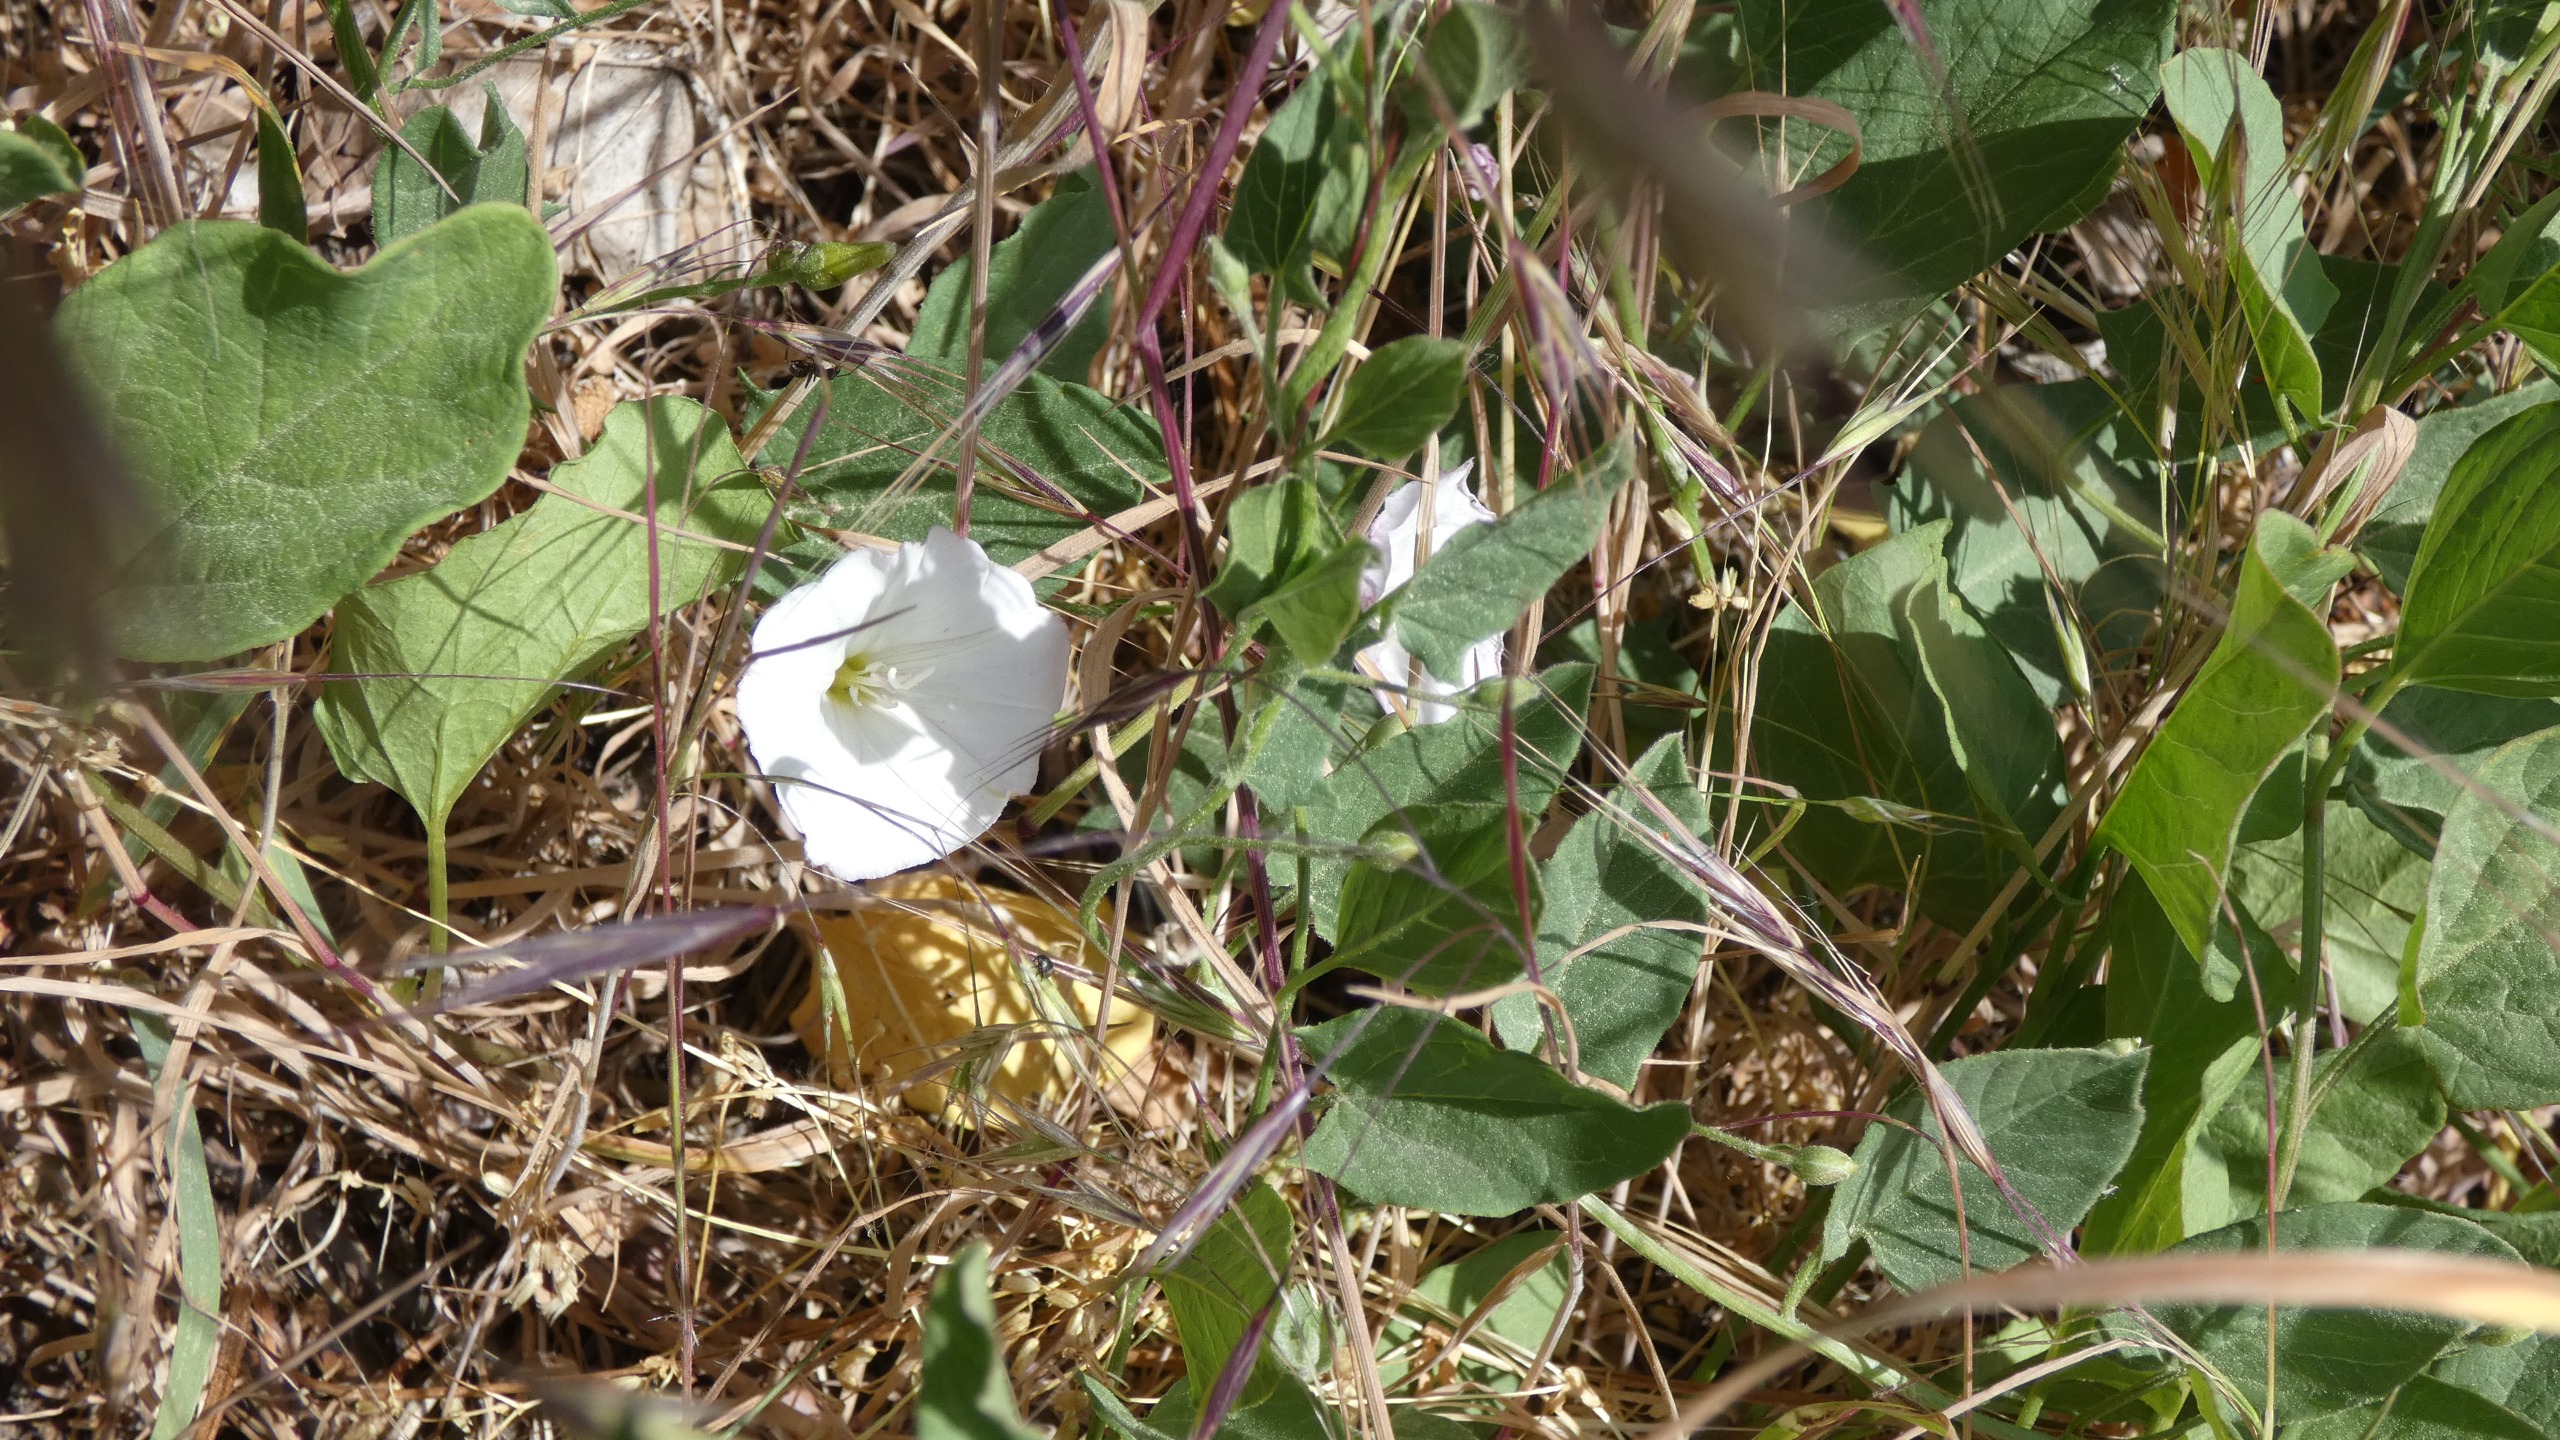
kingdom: Plantae
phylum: Tracheophyta
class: Magnoliopsida
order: Solanales
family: Convolvulaceae
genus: Convolvulus
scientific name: Convolvulus arvensis
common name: Ager-snerle
